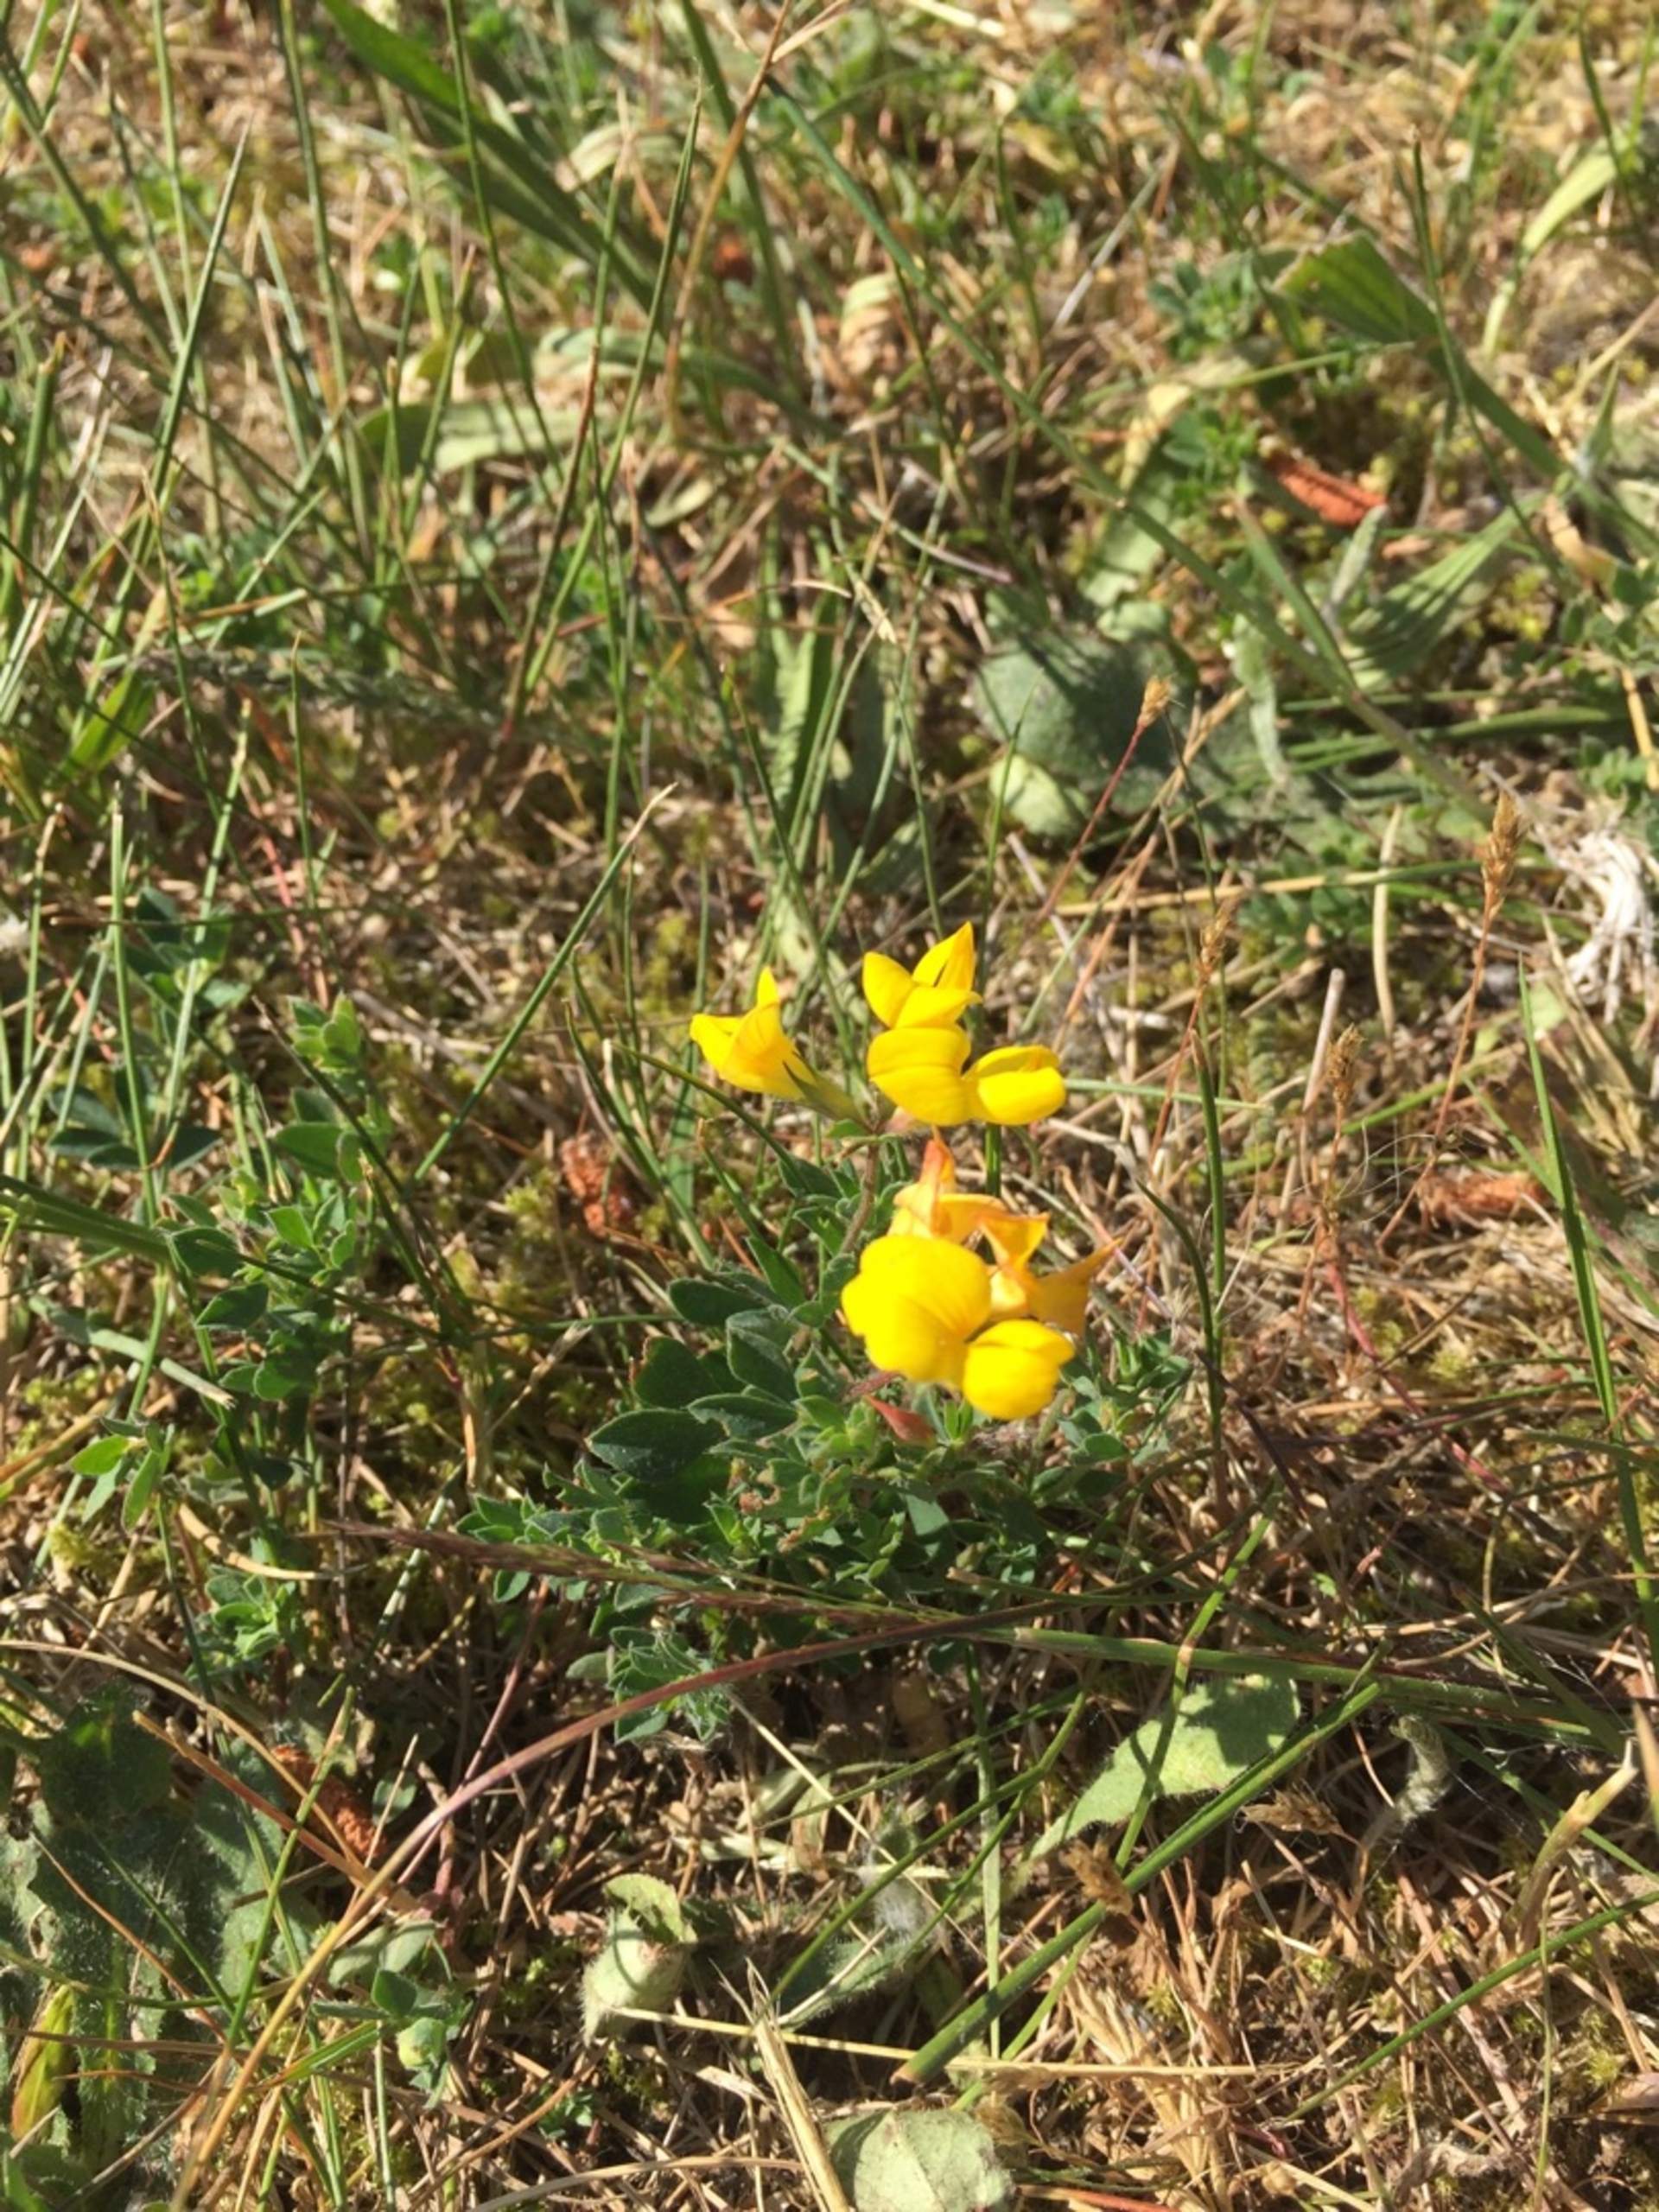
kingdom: Plantae
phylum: Tracheophyta
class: Magnoliopsida
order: Fabales
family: Fabaceae
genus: Lotus
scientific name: Lotus corniculatus
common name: Almindelig kællingetand
